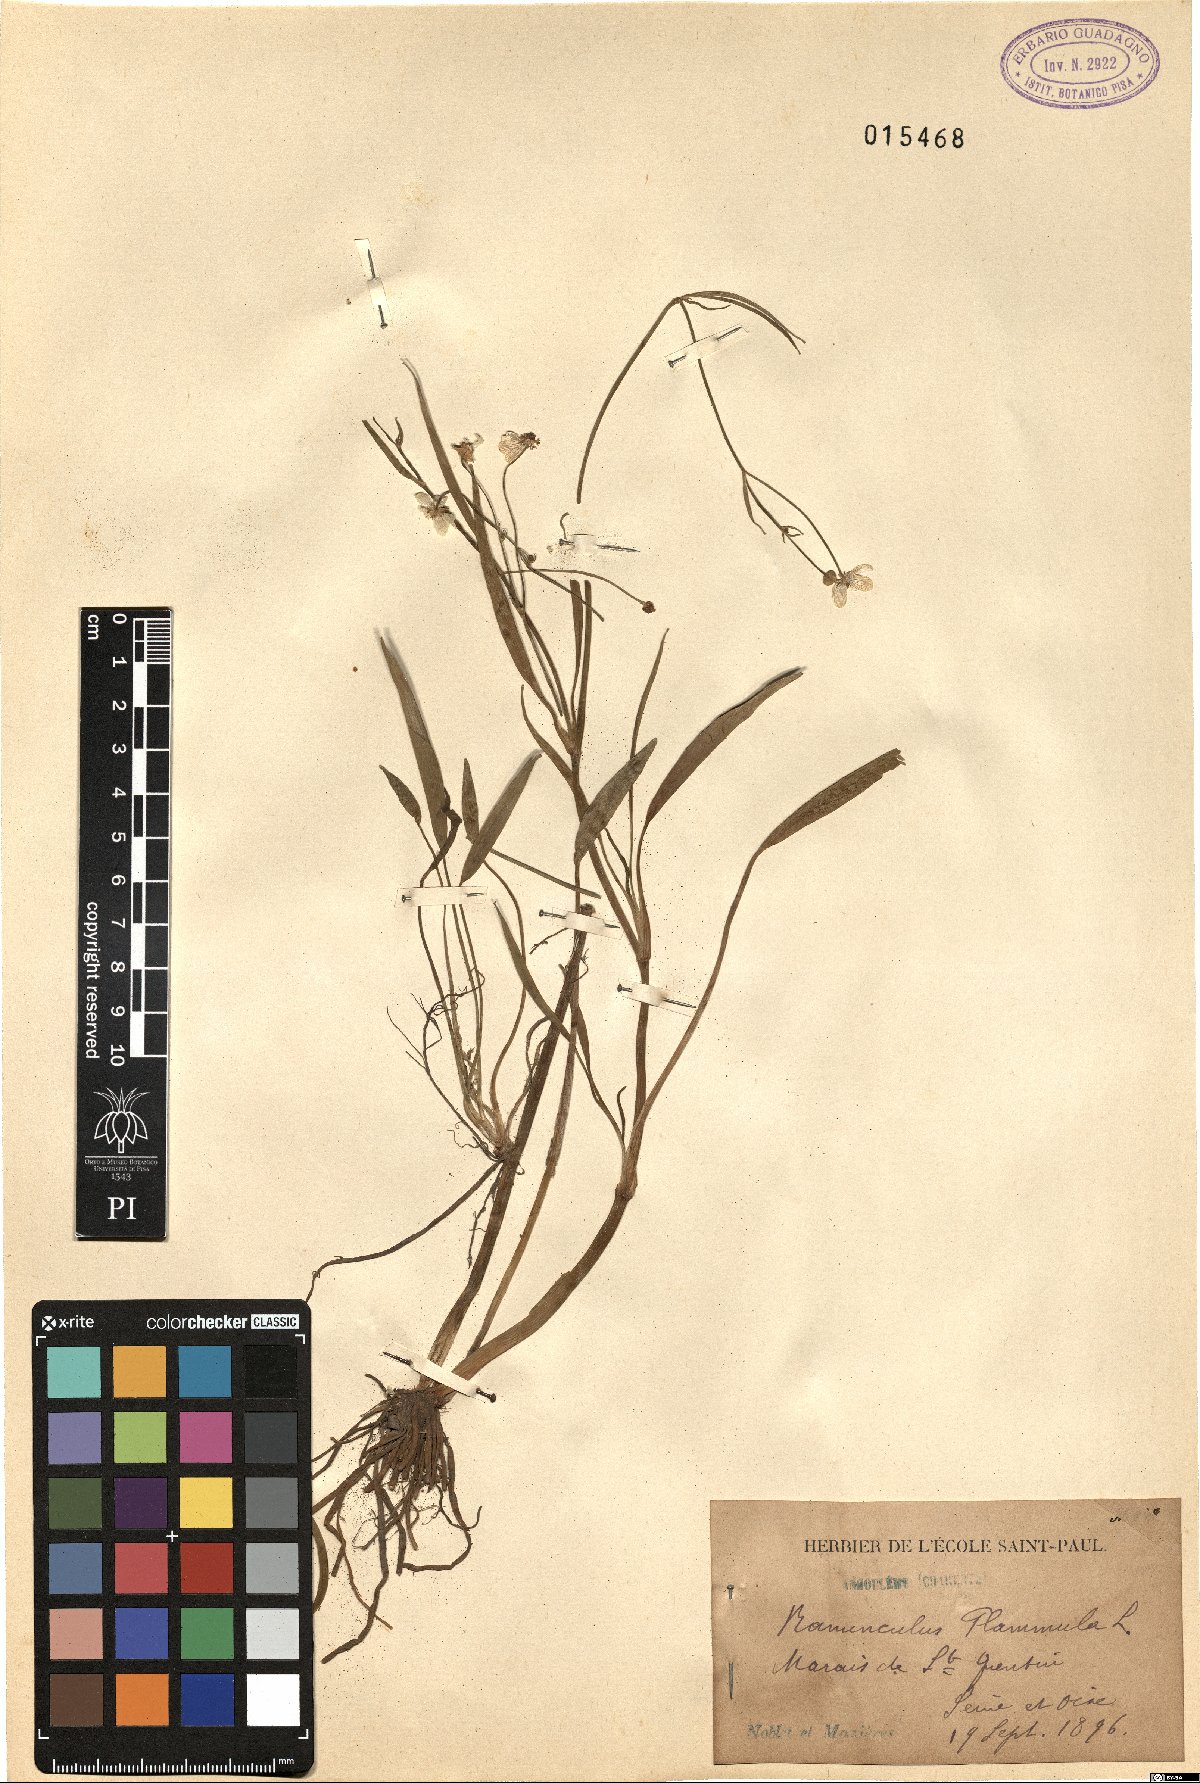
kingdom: Plantae
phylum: Tracheophyta
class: Magnoliopsida
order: Ranunculales
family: Ranunculaceae
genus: Ranunculus
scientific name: Ranunculus flammula
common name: Lesser spearwort
